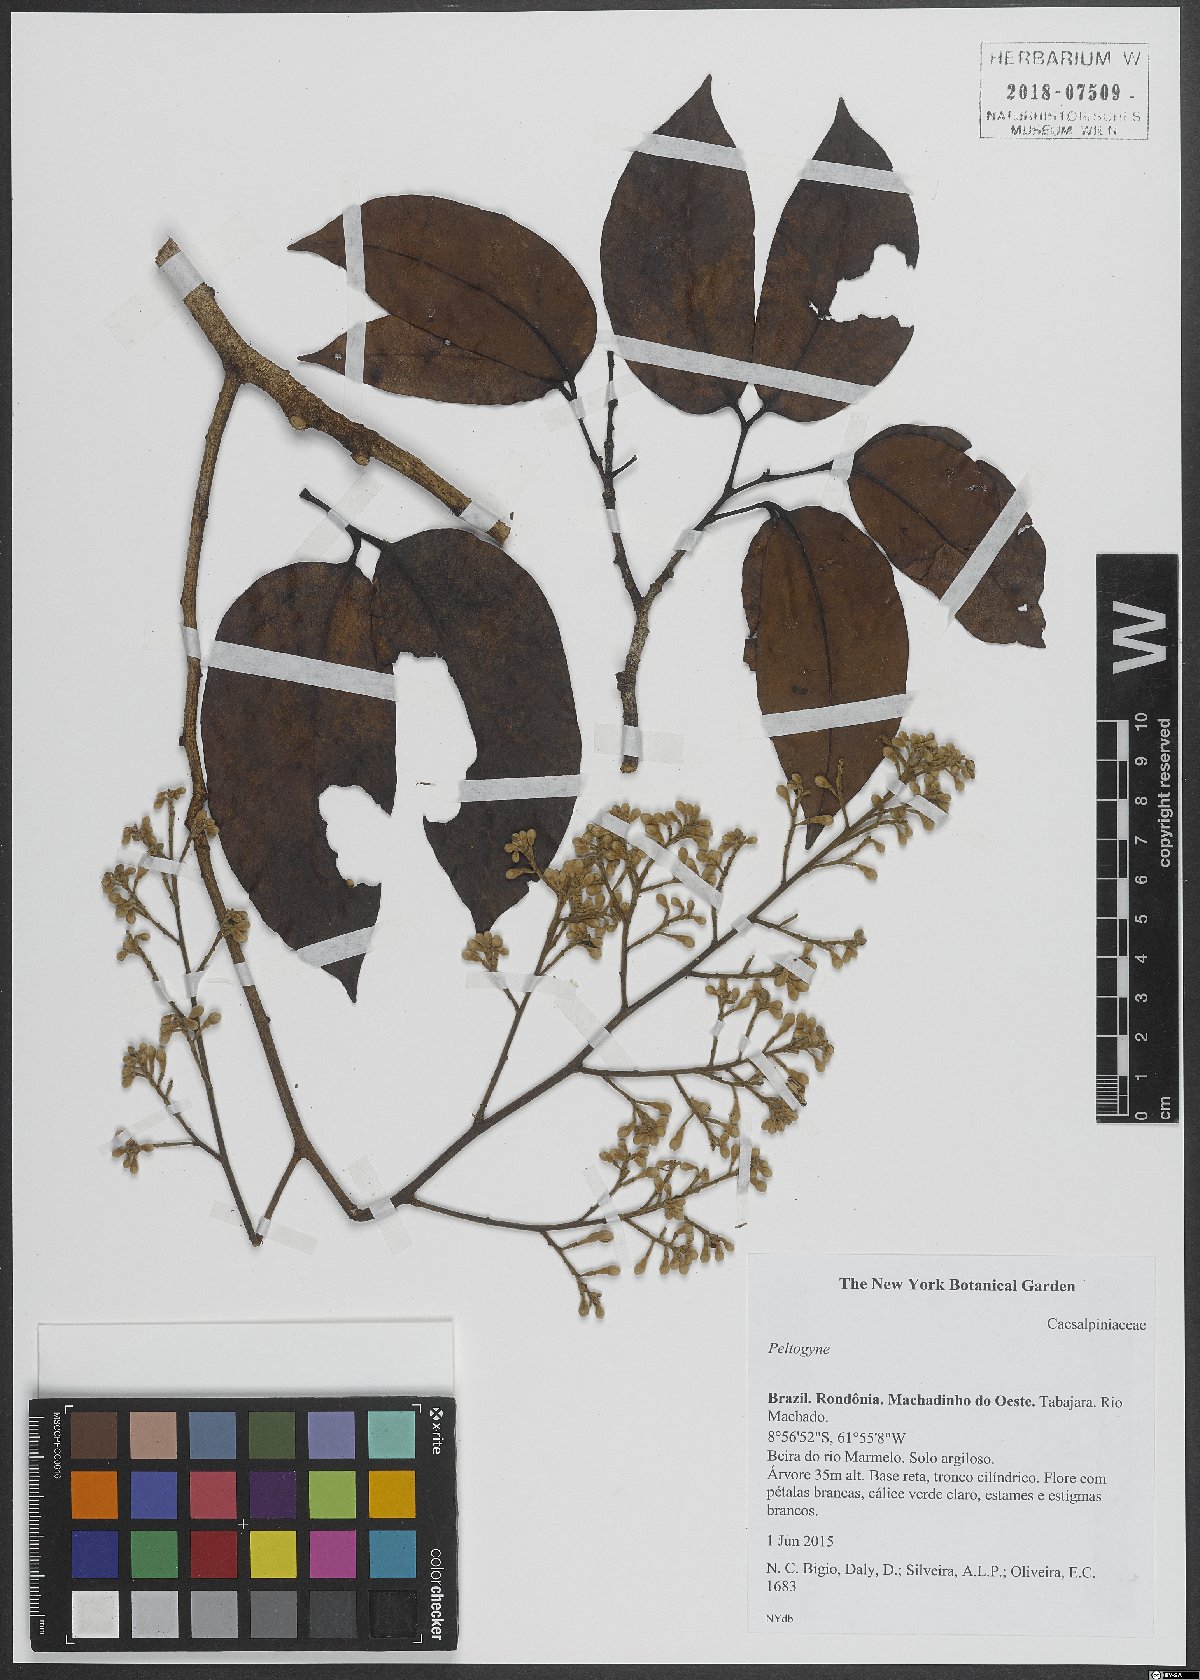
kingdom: Plantae
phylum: Tracheophyta
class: Magnoliopsida
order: Fabales
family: Fabaceae
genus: Peltogyne
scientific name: Peltogyne
